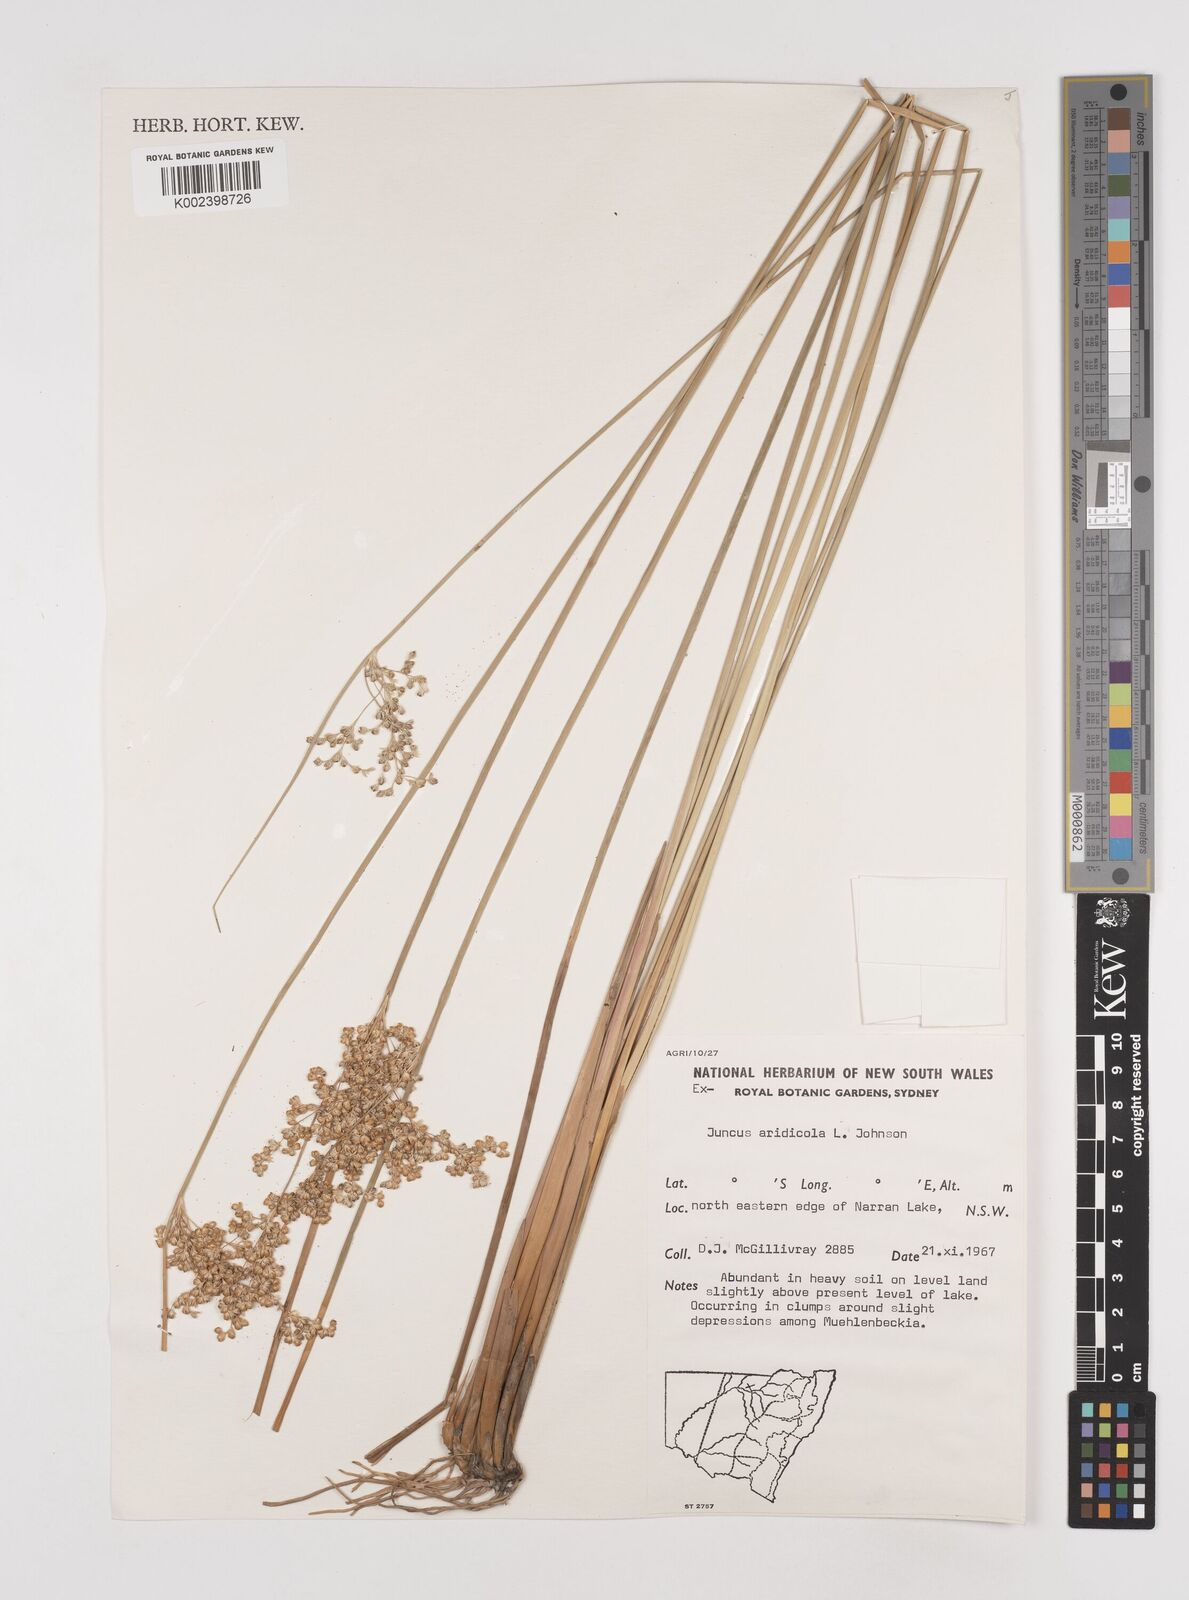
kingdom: Plantae
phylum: Tracheophyta
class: Liliopsida
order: Poales
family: Juncaceae
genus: Juncus
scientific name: Juncus aridicola
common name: Tussock rush
